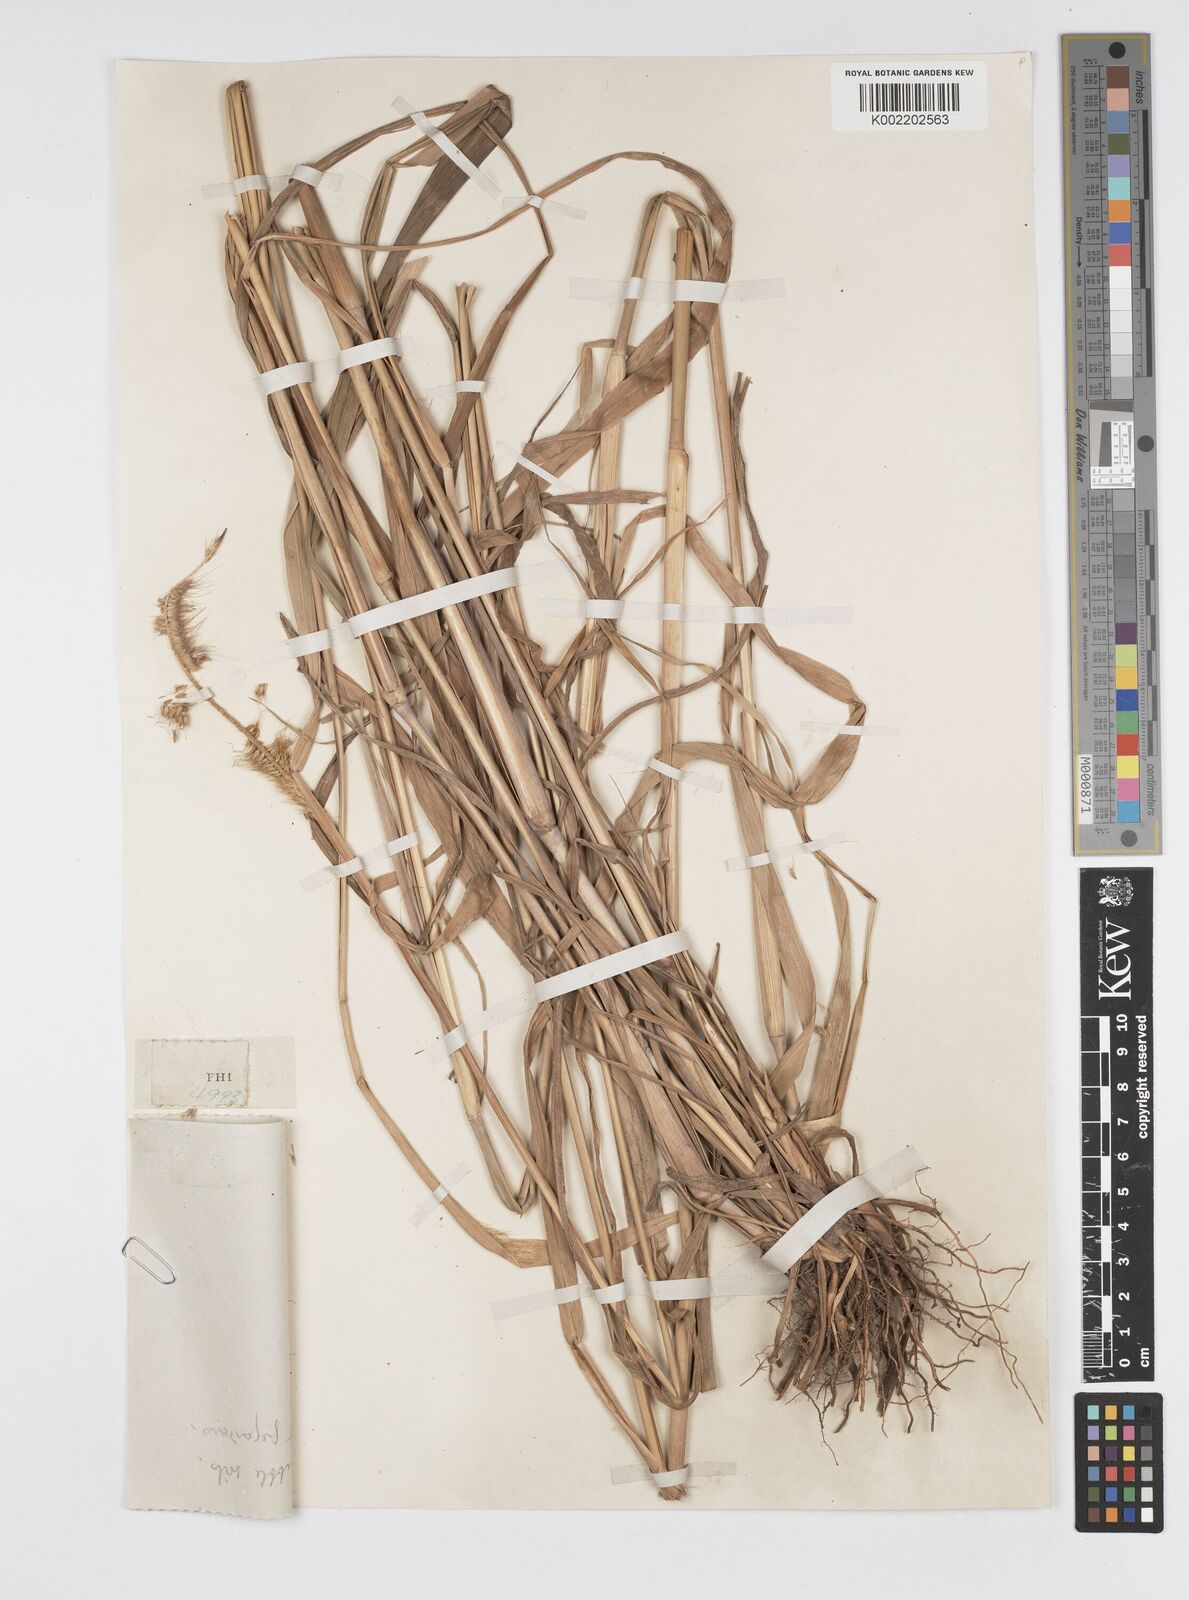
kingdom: Plantae
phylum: Tracheophyta
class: Liliopsida
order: Poales
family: Poaceae
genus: Setaria
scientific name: Setaria parviflora
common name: Knotroot bristle-grass
